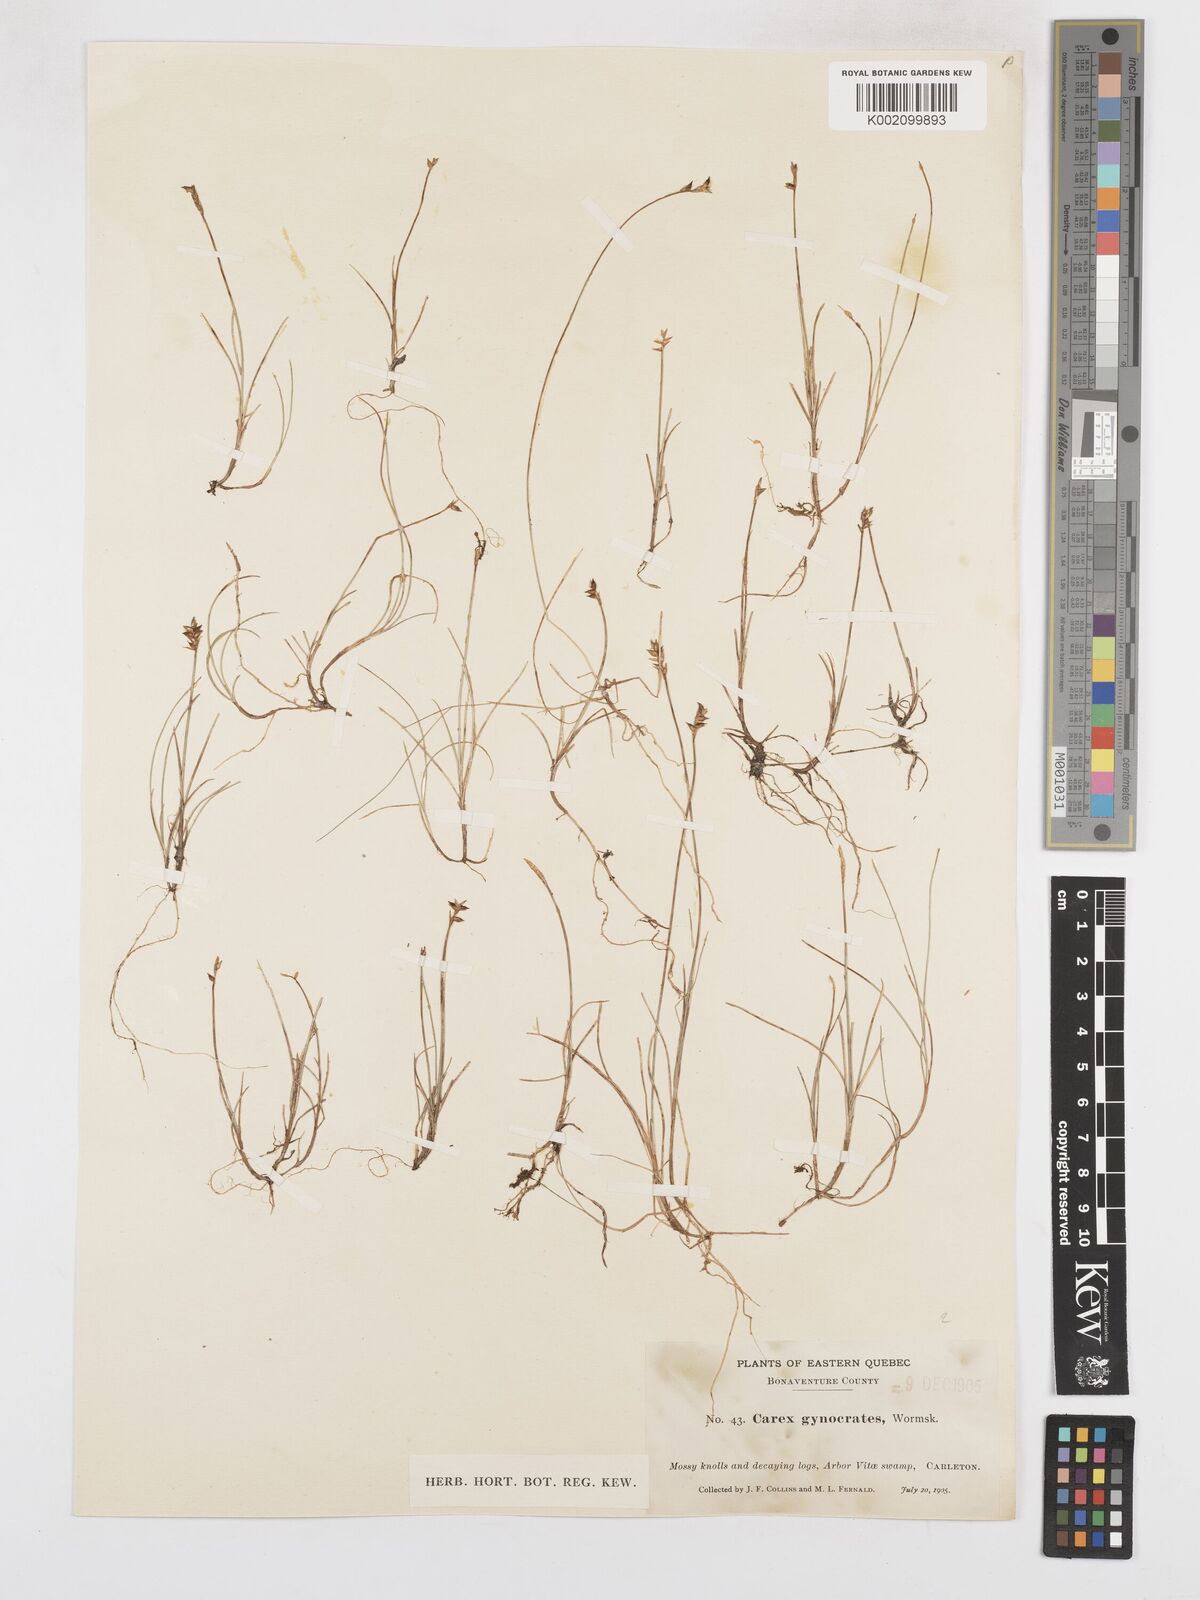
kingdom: Plantae
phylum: Tracheophyta
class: Liliopsida
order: Poales
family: Cyperaceae
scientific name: Cyperaceae
